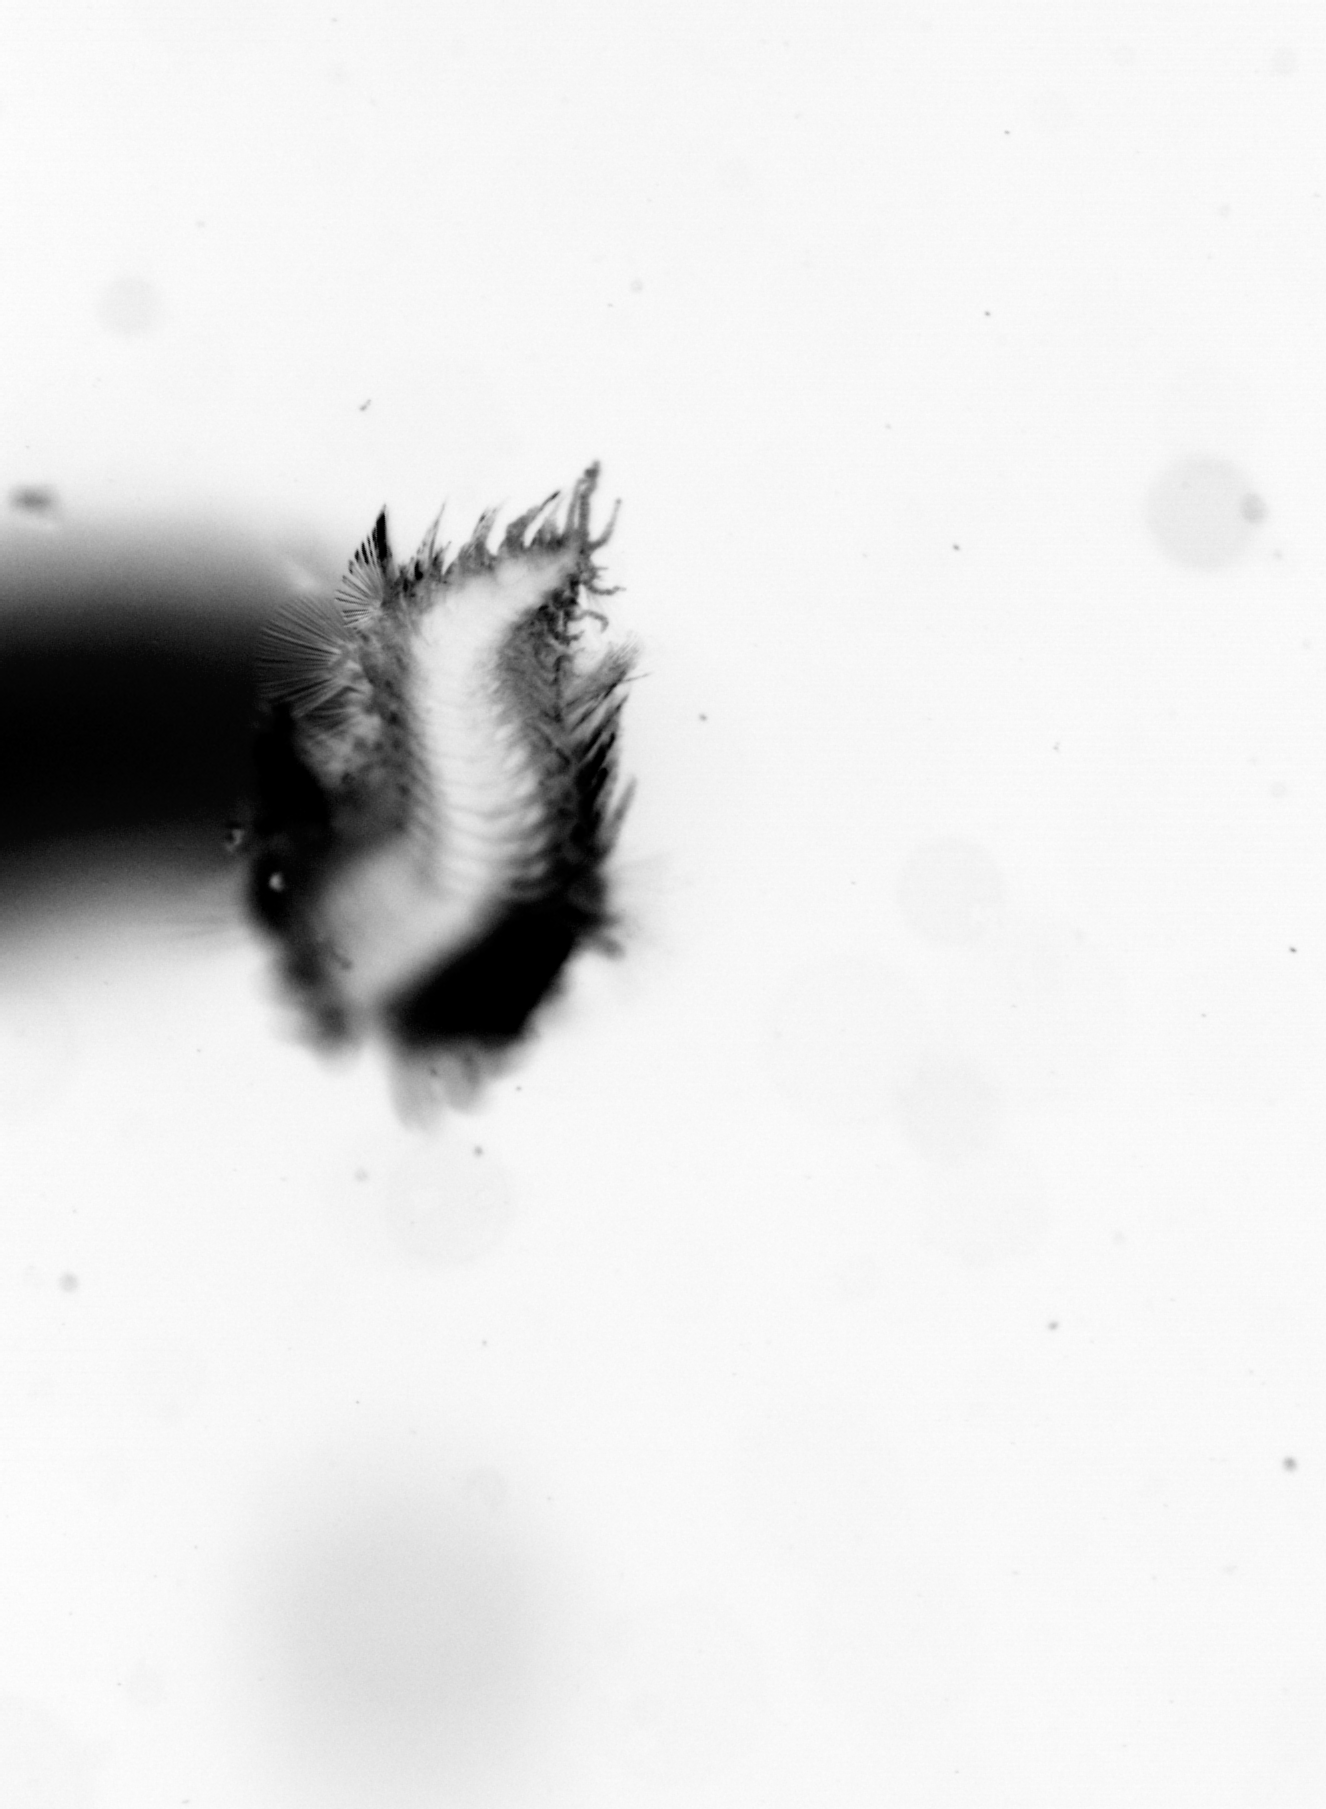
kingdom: Animalia
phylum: Annelida
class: Polychaeta
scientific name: Polychaeta
